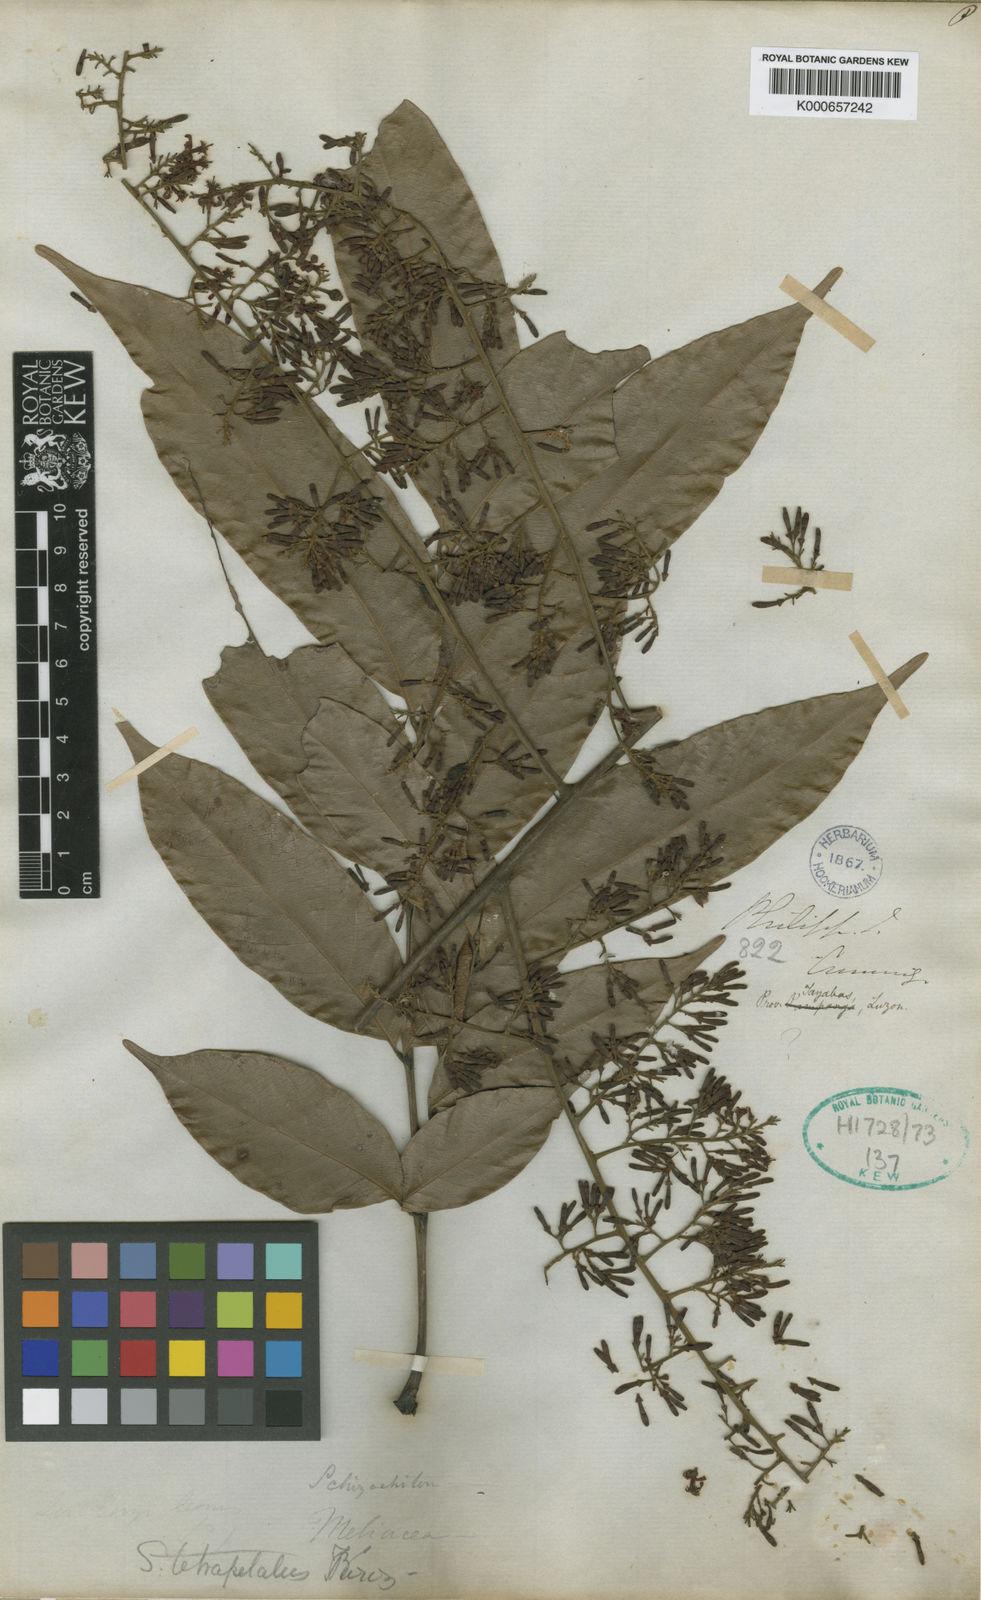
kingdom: Plantae
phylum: Tracheophyta
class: Magnoliopsida
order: Sapindales
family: Meliaceae
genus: Chisocheton
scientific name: Chisocheton patens
